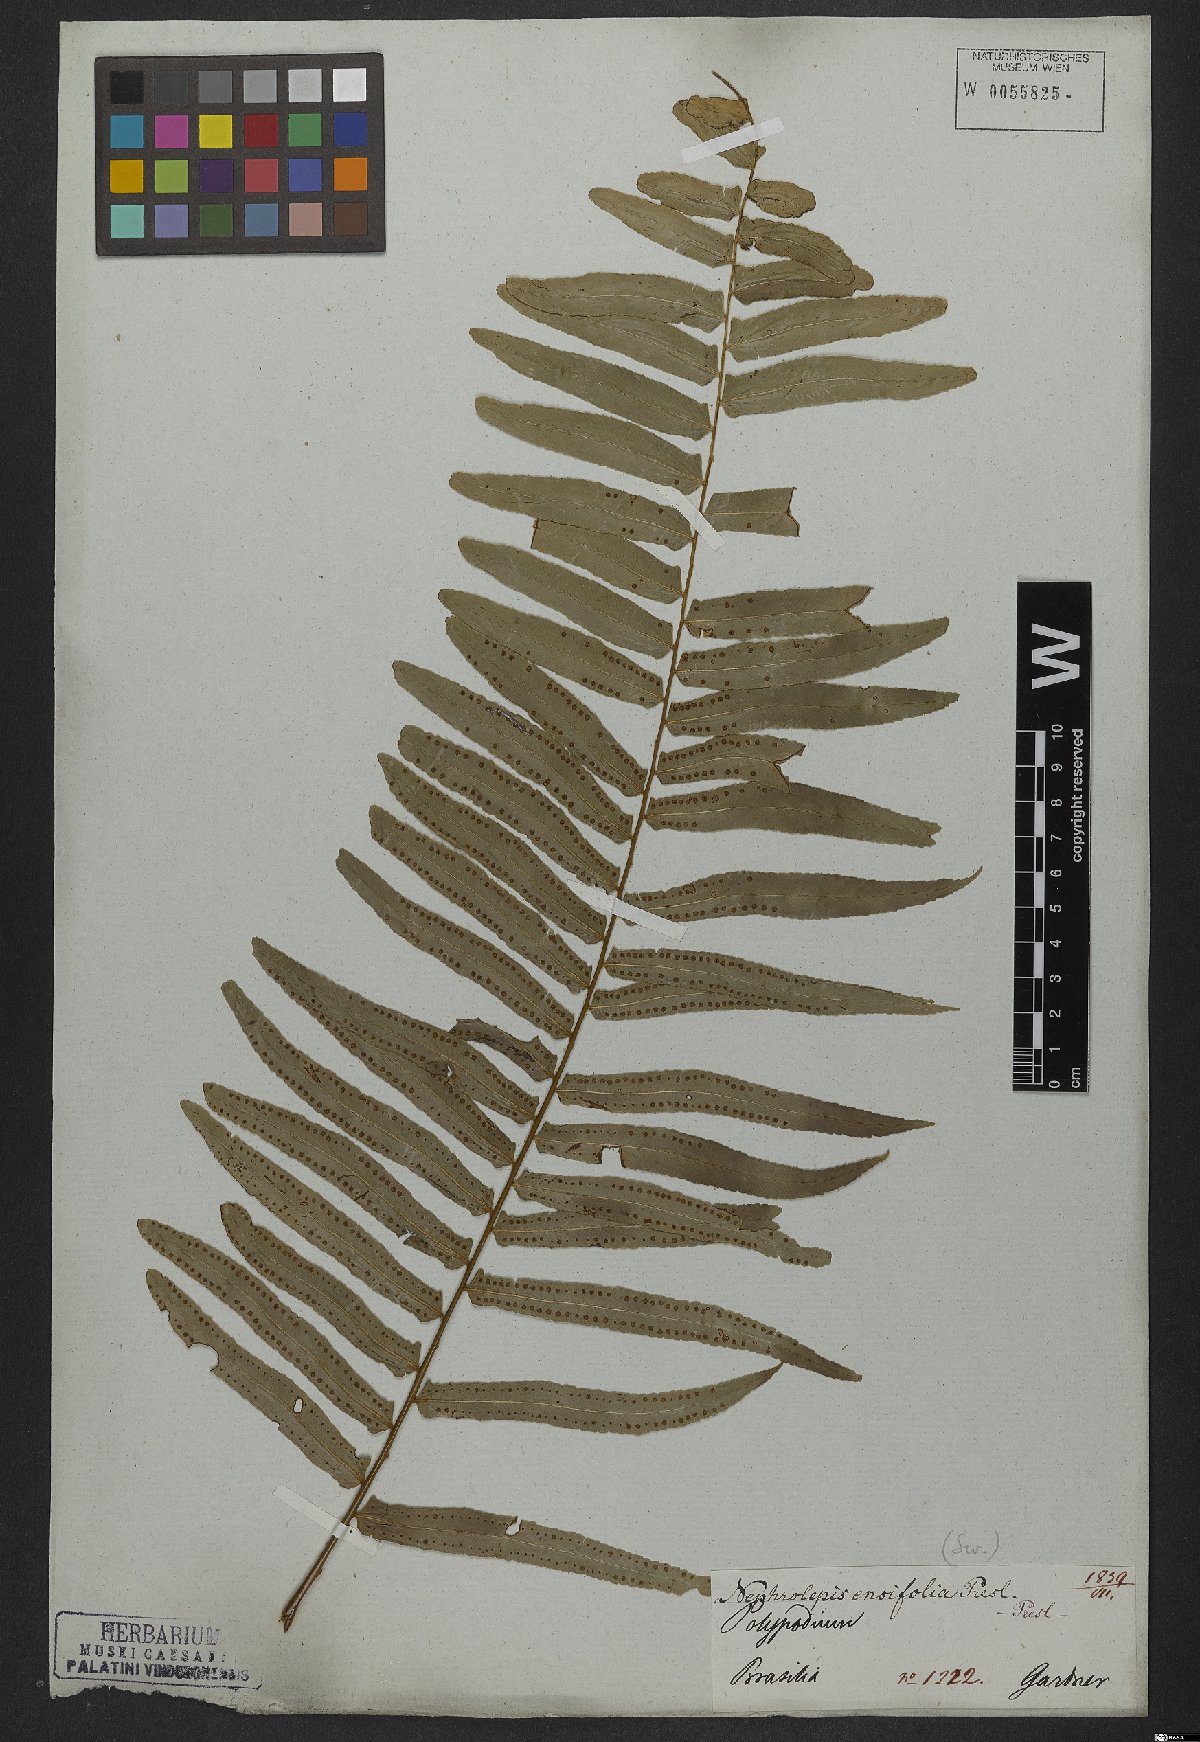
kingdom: Plantae
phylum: Tracheophyta
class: Polypodiopsida
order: Polypodiales
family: Nephrolepidaceae
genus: Nephrolepis
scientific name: Nephrolepis biserrata
